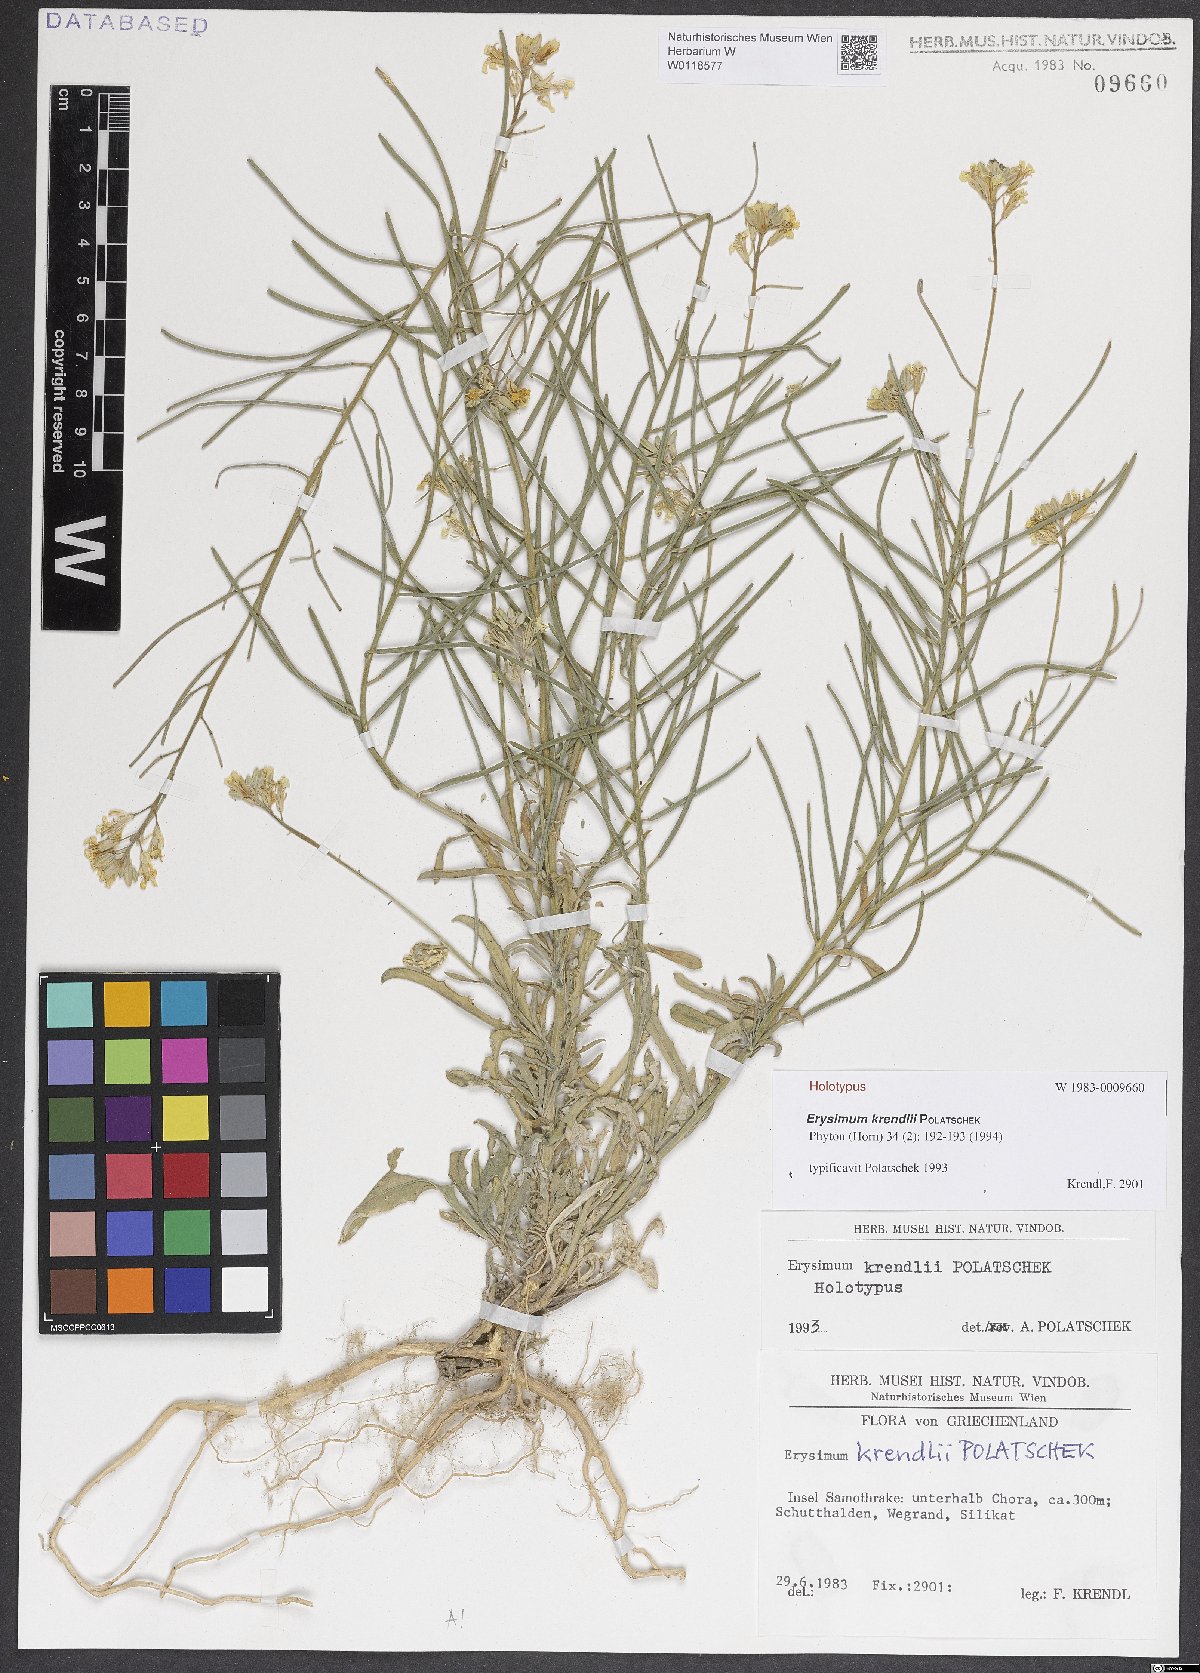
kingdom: Plantae
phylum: Tracheophyta
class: Magnoliopsida
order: Brassicales
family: Brassicaceae
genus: Erysimum
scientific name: Erysimum krendlii
